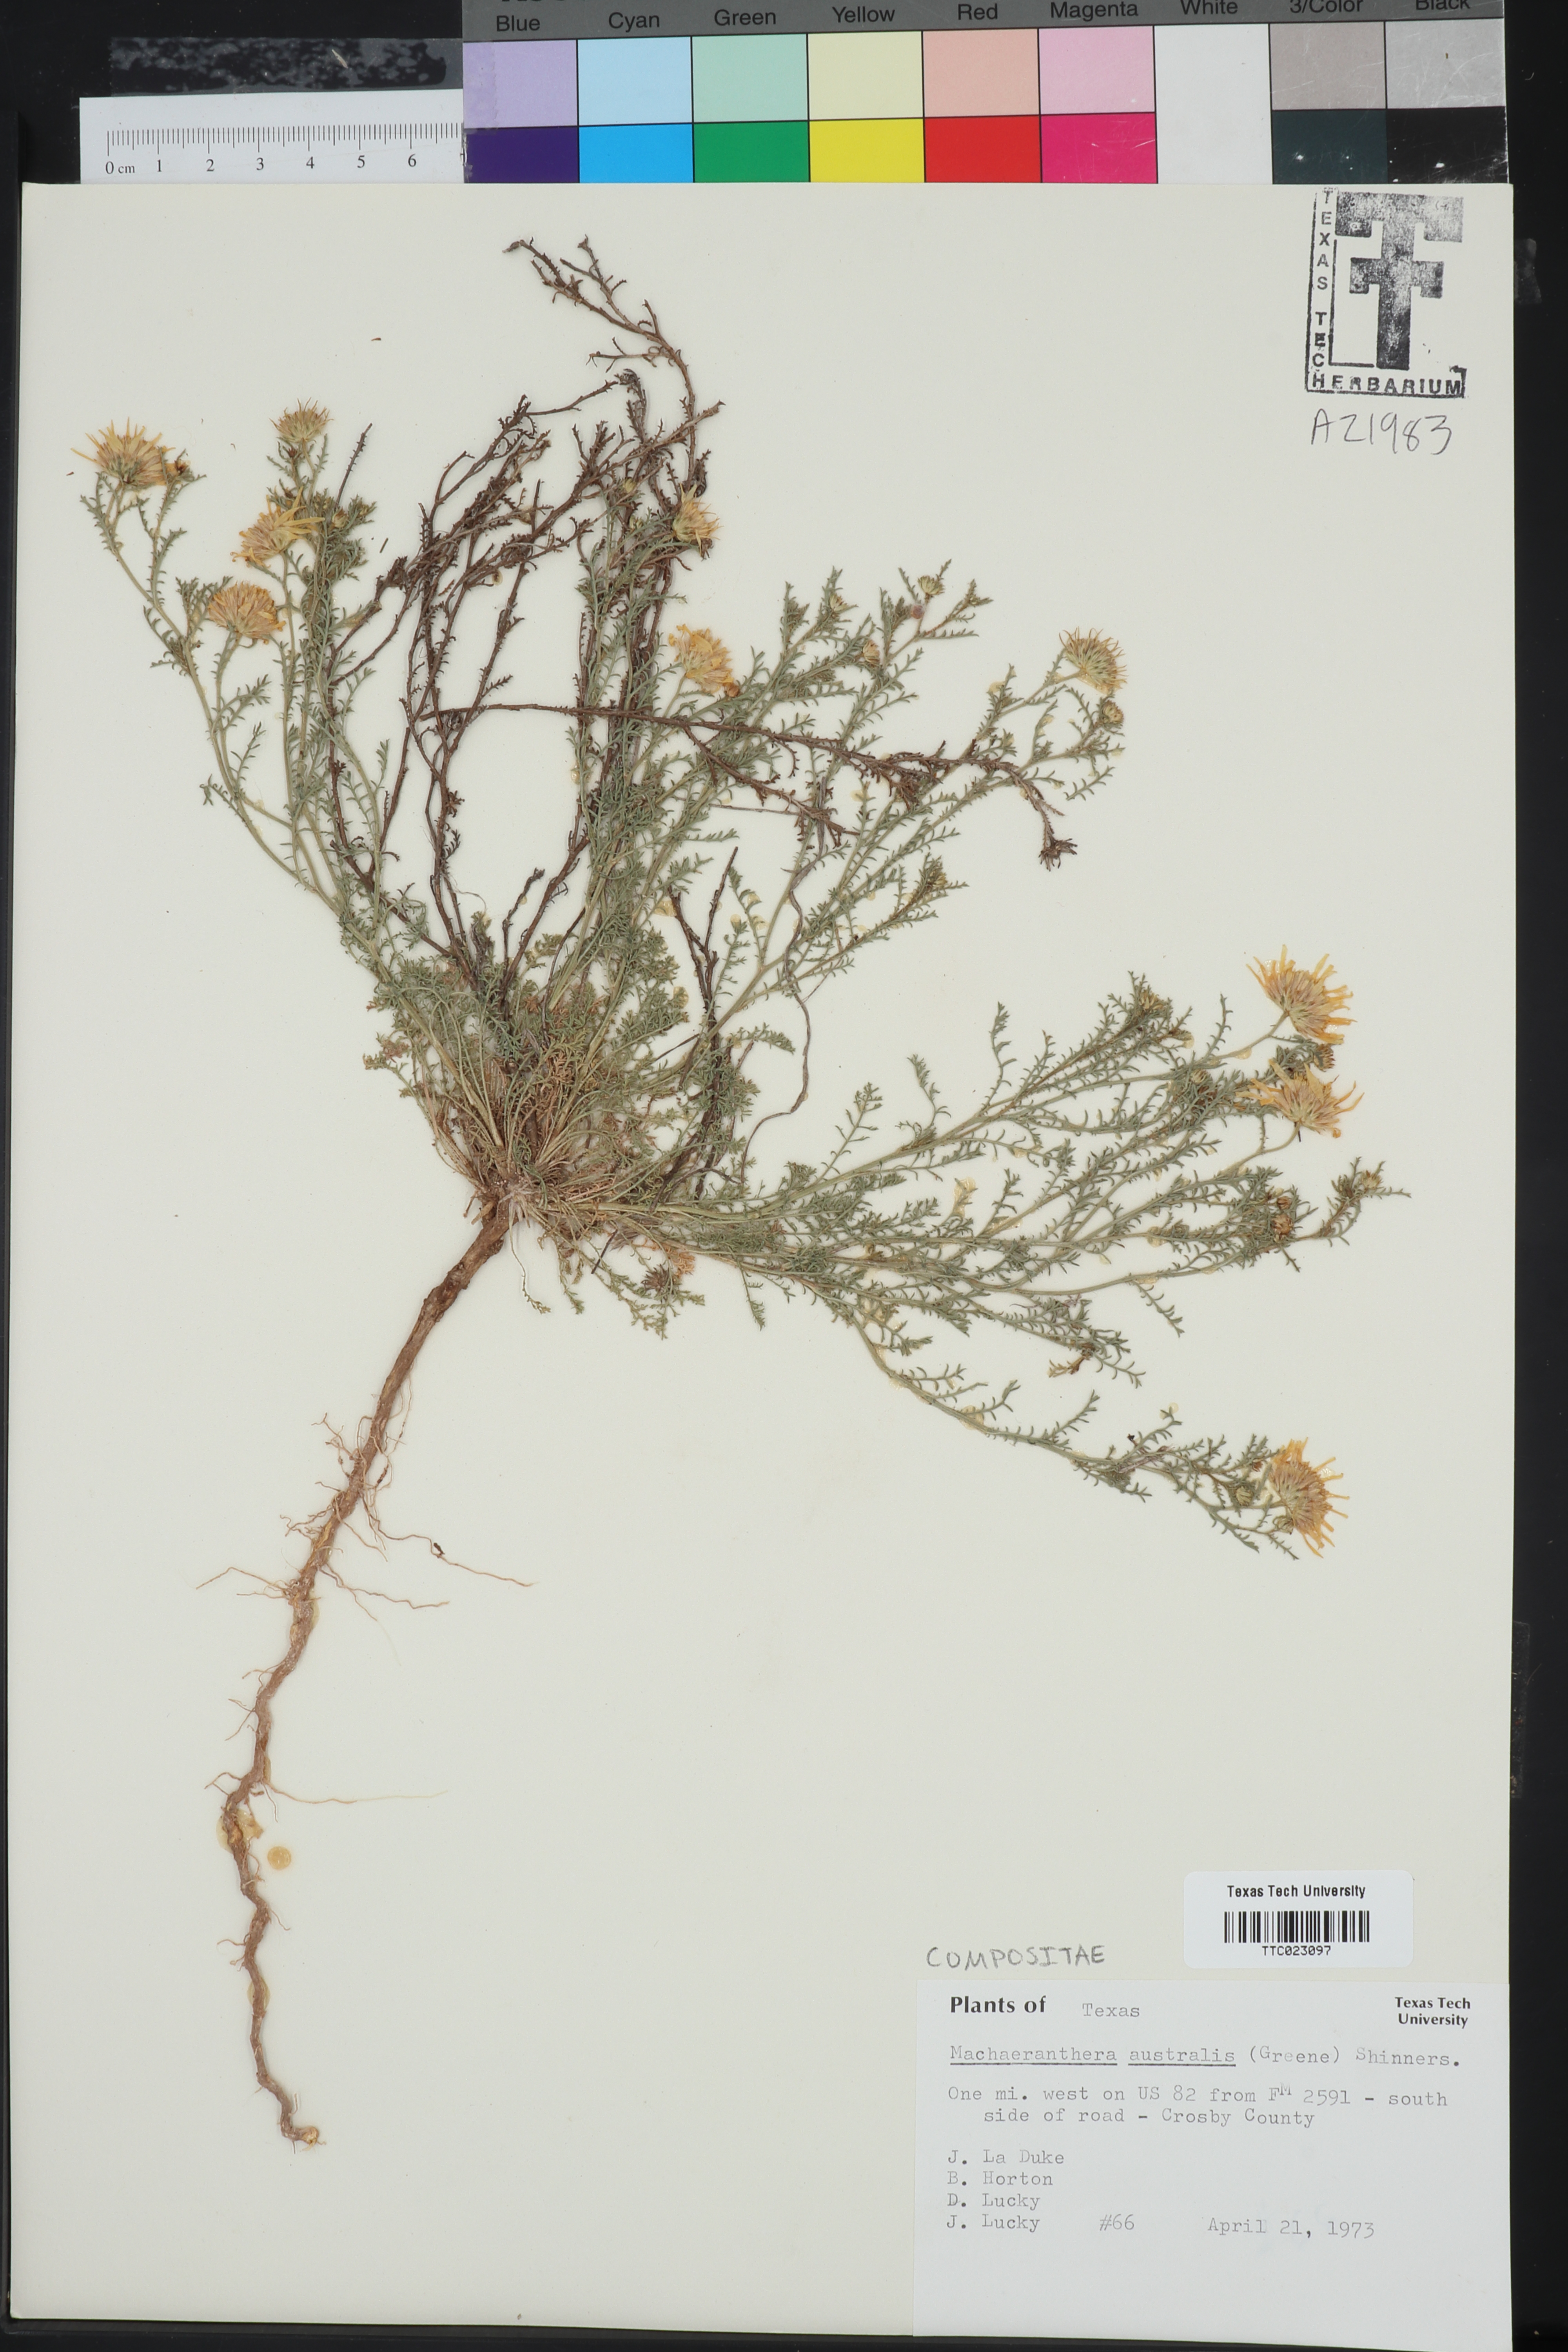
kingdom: Plantae
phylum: Tracheophyta
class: Magnoliopsida
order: Asterales
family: Asteraceae
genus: Xanthisma
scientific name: Xanthisma spinulosum
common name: Spiny goldenweed
